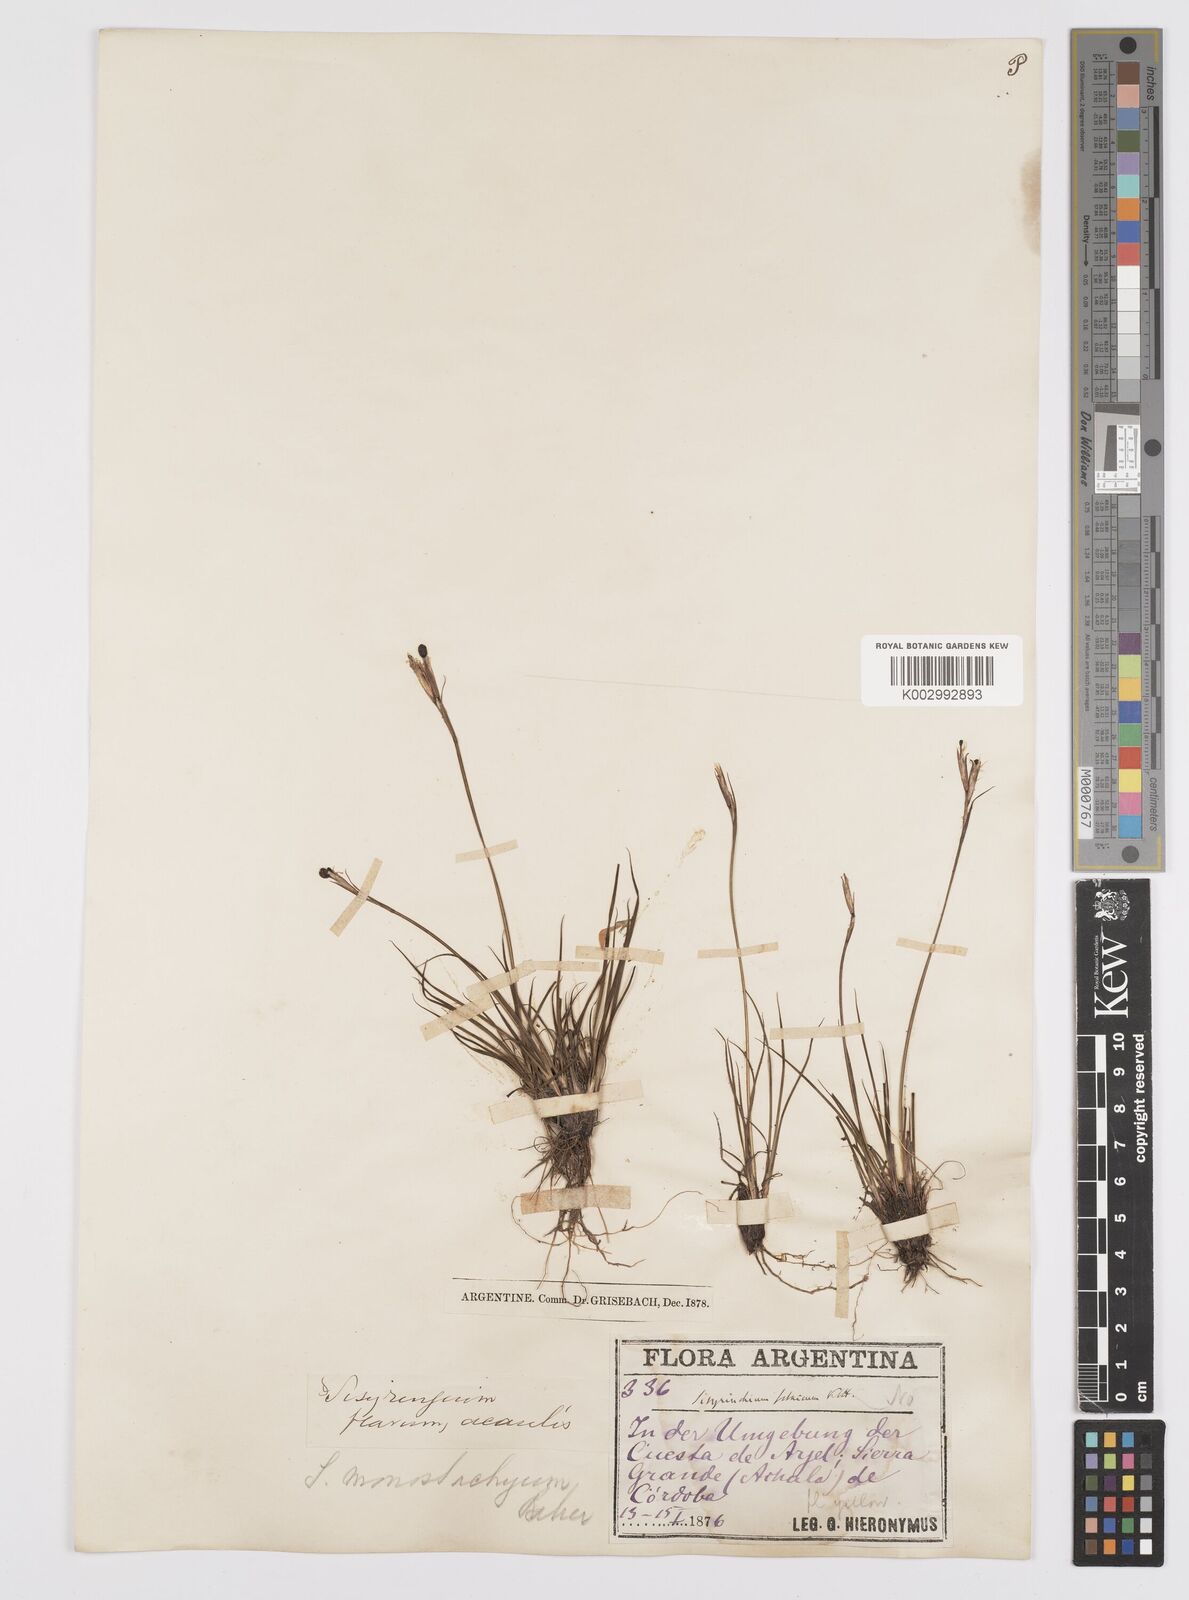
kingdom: Plantae
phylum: Tracheophyta
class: Liliopsida
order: Asparagales
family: Iridaceae
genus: Sisyrinchium
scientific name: Sisyrinchium avenaceum
